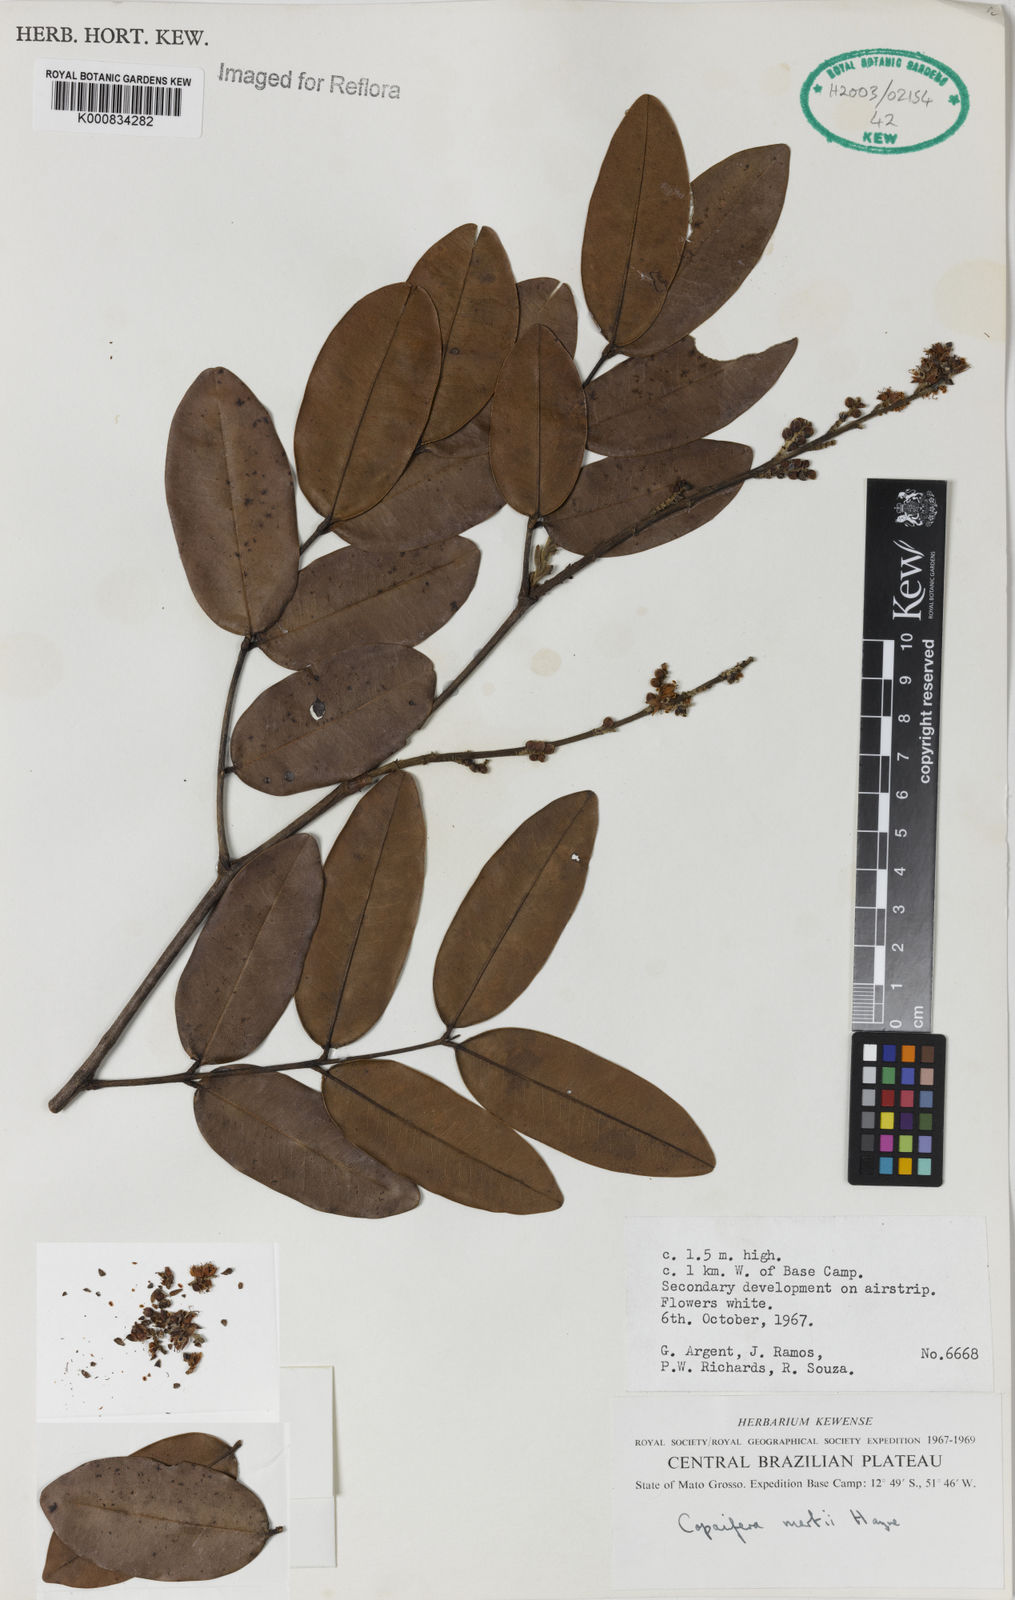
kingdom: Plantae
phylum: Tracheophyta
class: Magnoliopsida
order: Fabales
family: Fabaceae
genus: Copaifera
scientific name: Copaifera martii
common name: Copaiba
